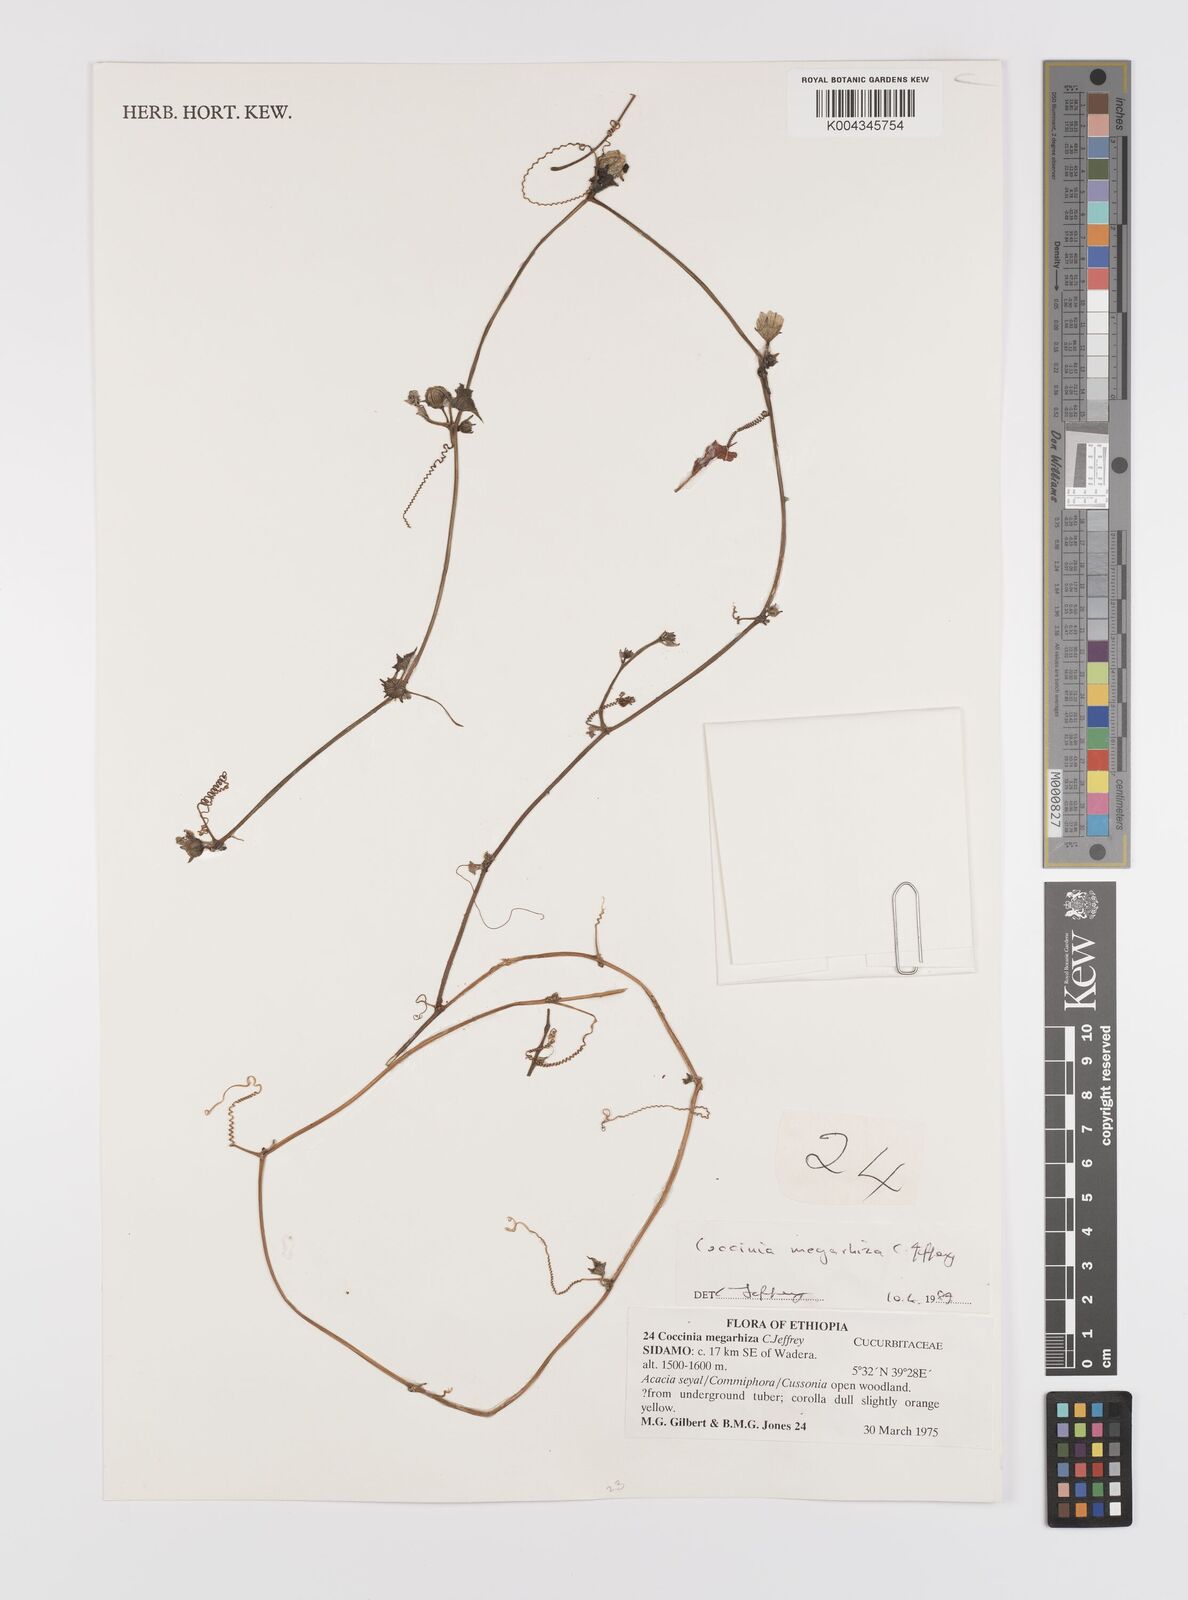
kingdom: Plantae
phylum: Tracheophyta
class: Magnoliopsida
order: Cucurbitales
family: Cucurbitaceae
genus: Coccinia
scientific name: Coccinia megarrhiza
